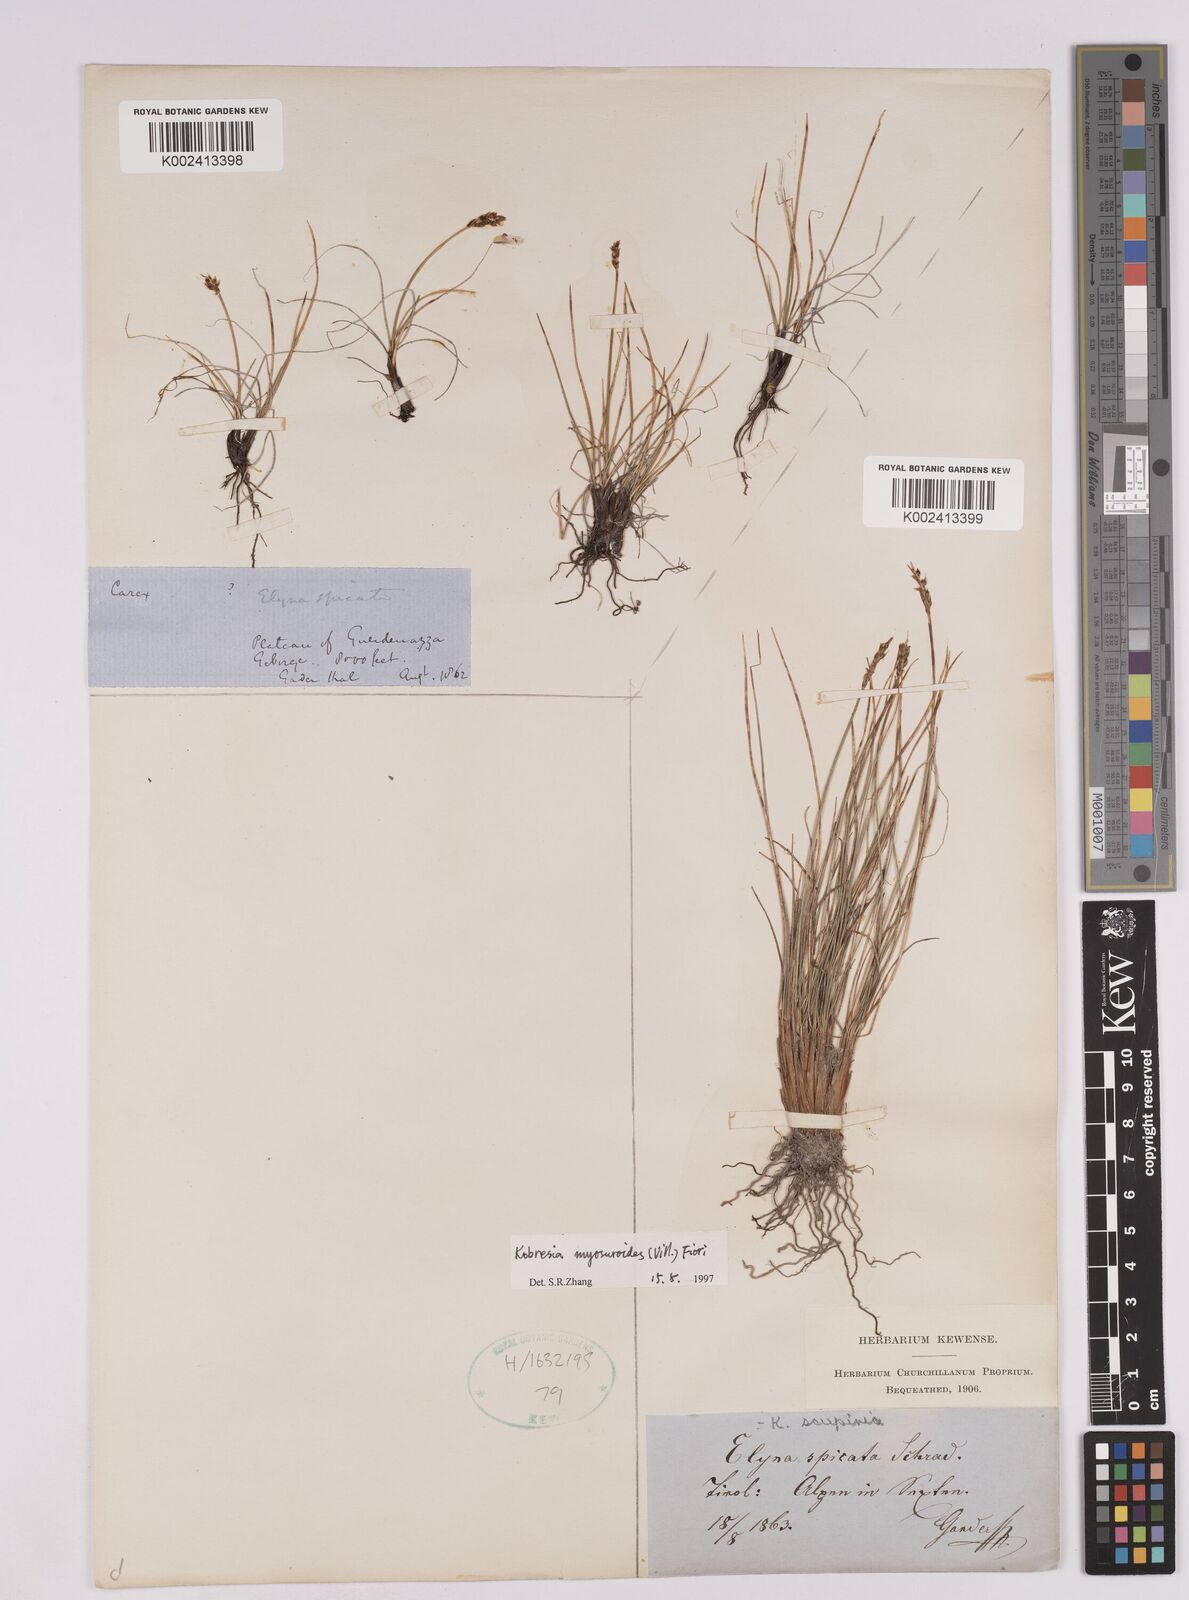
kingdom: Plantae
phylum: Tracheophyta
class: Liliopsida
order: Poales
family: Cyperaceae
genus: Carex
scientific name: Carex myosuroides
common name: Bellard's bog sedge
